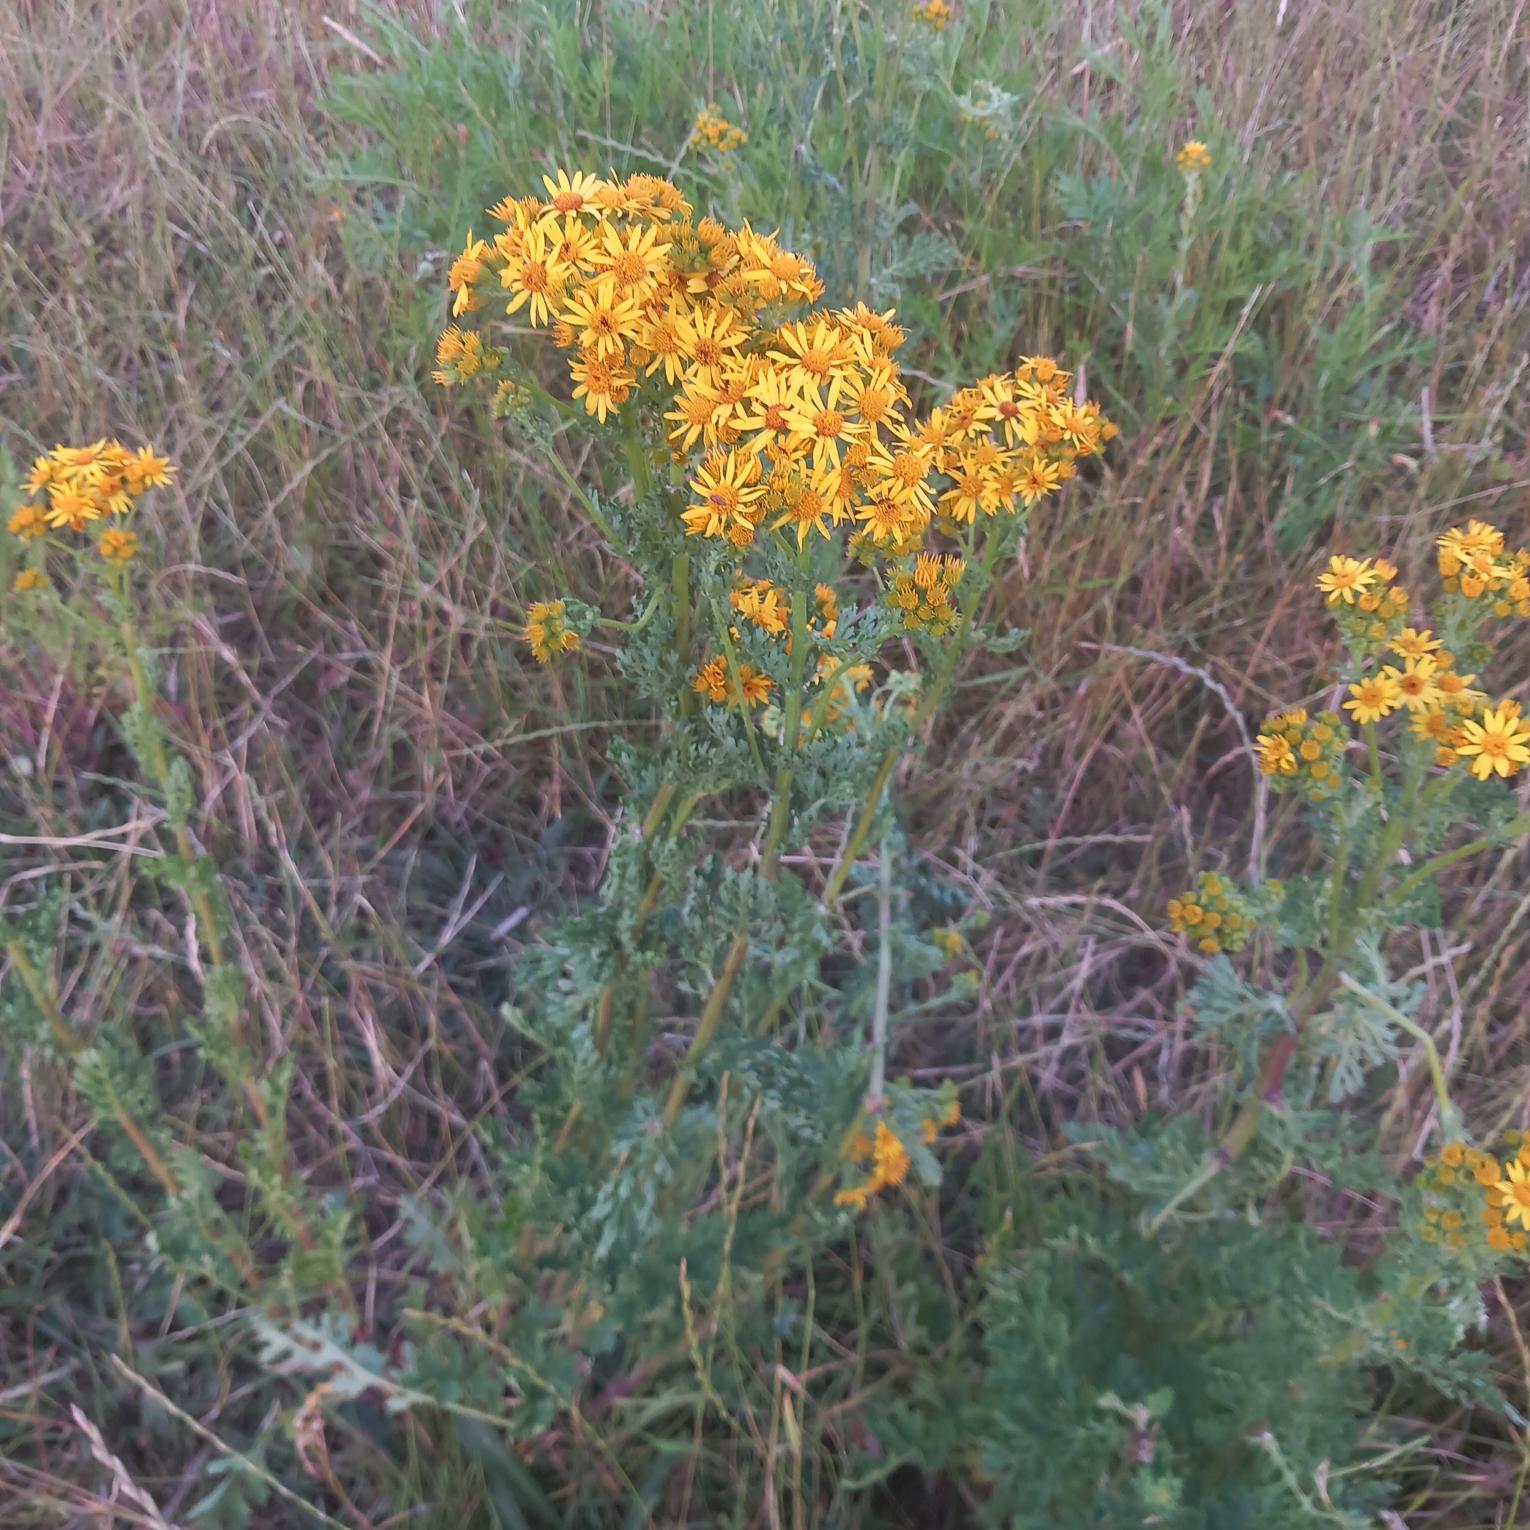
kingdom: Plantae
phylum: Tracheophyta
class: Magnoliopsida
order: Asterales
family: Asteraceae
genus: Jacobaea
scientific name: Jacobaea vulgaris
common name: Eng-brandbæger
